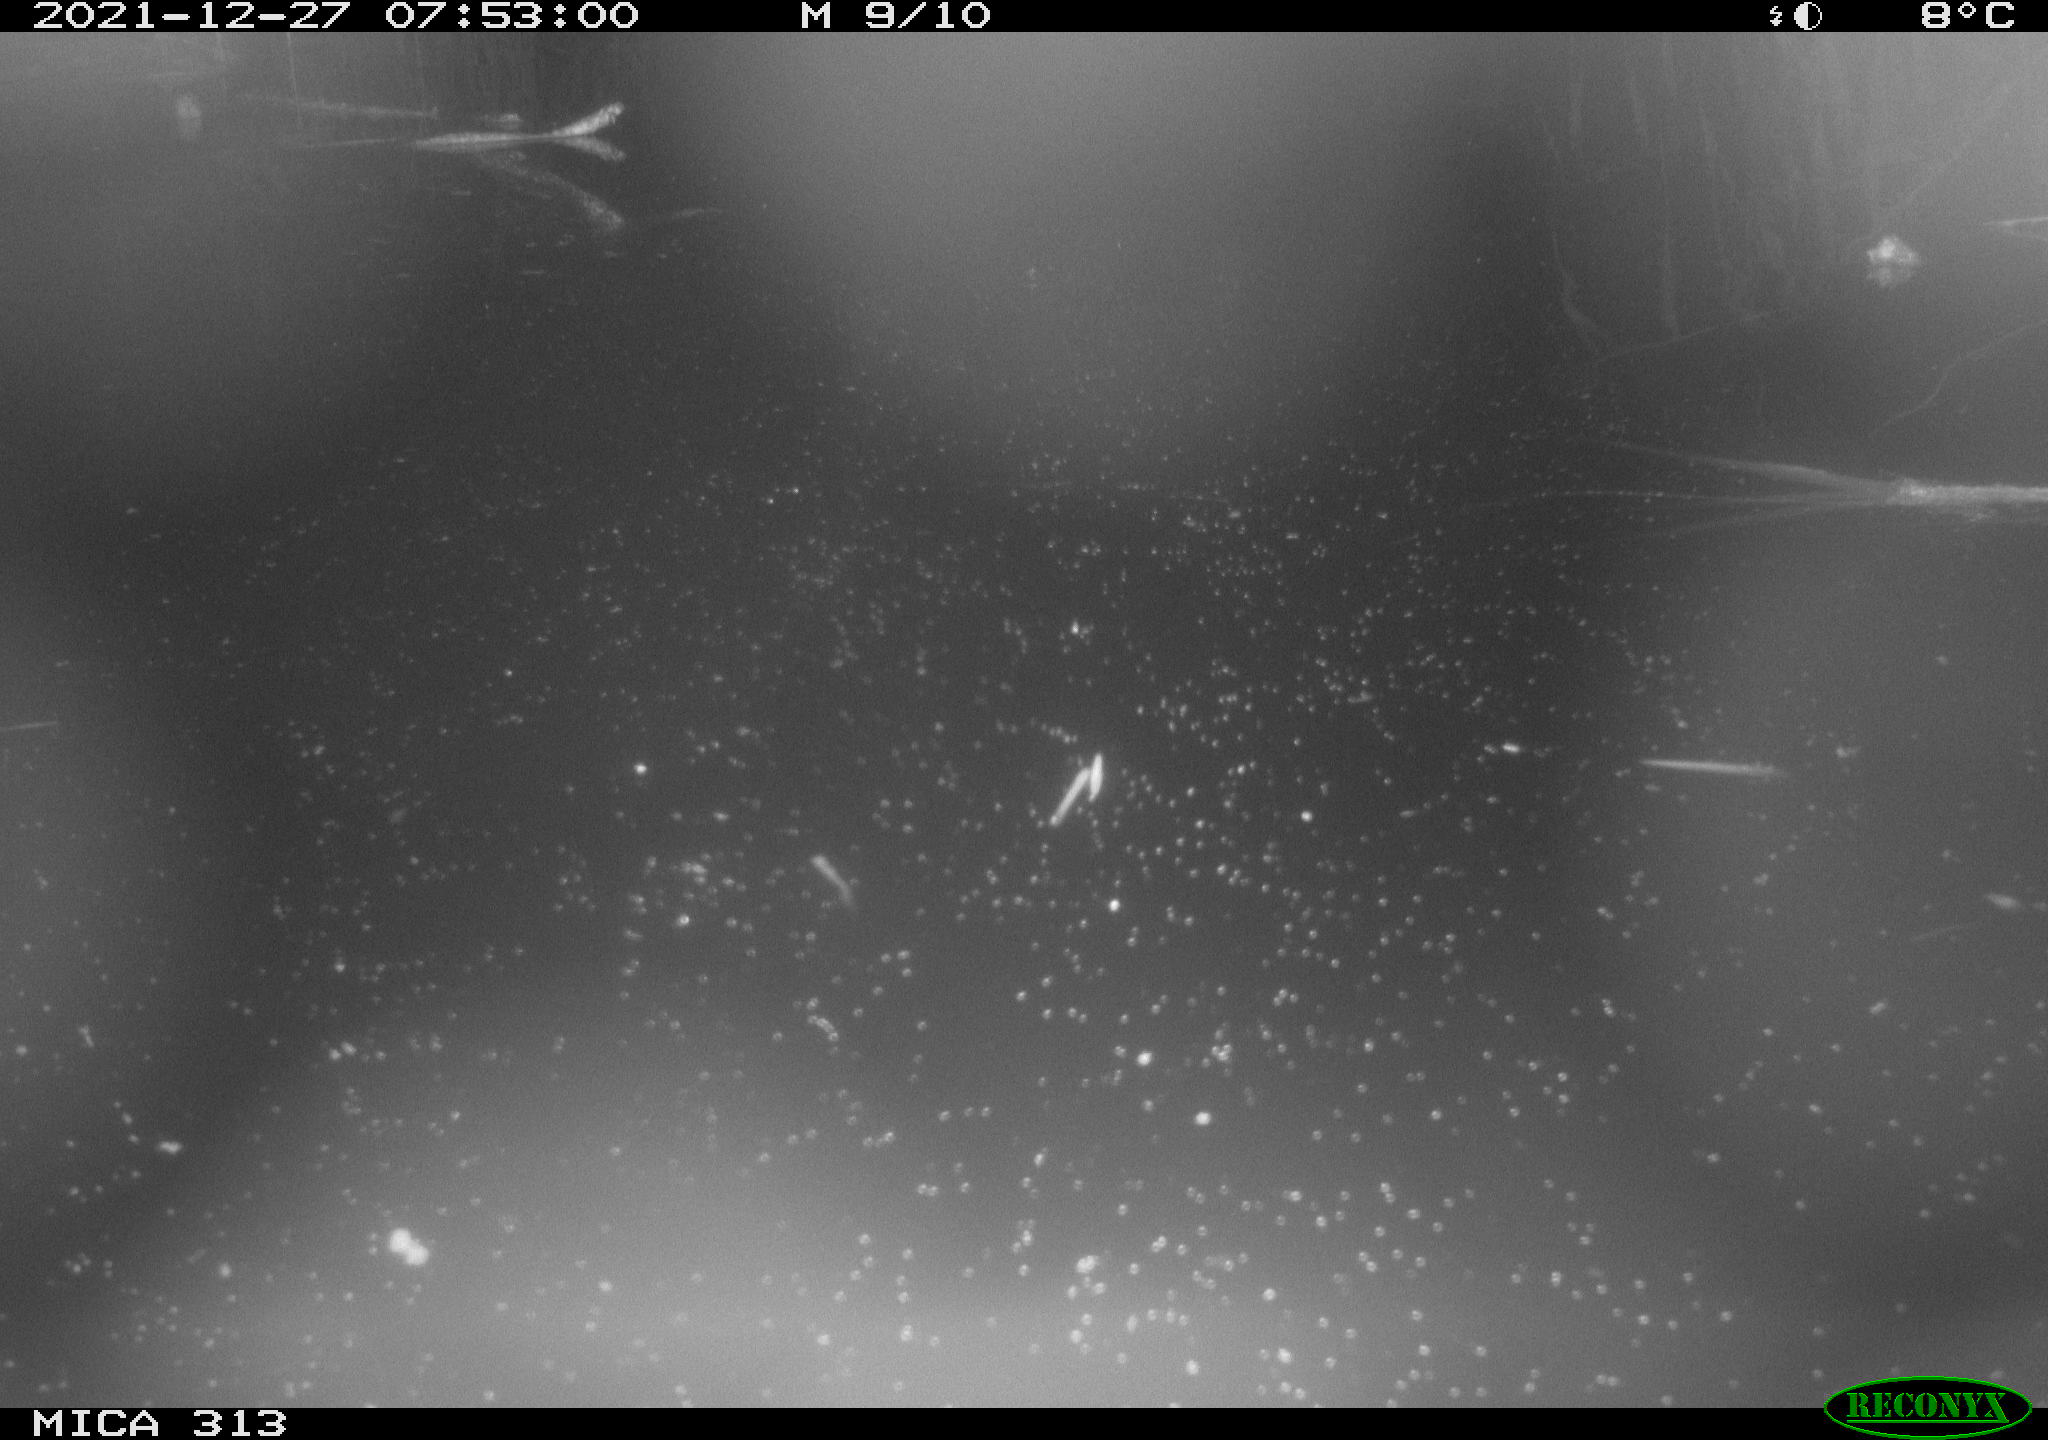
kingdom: Animalia
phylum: Chordata
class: Aves
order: Gruiformes
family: Rallidae
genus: Gallinula
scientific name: Gallinula chloropus
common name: Common moorhen
